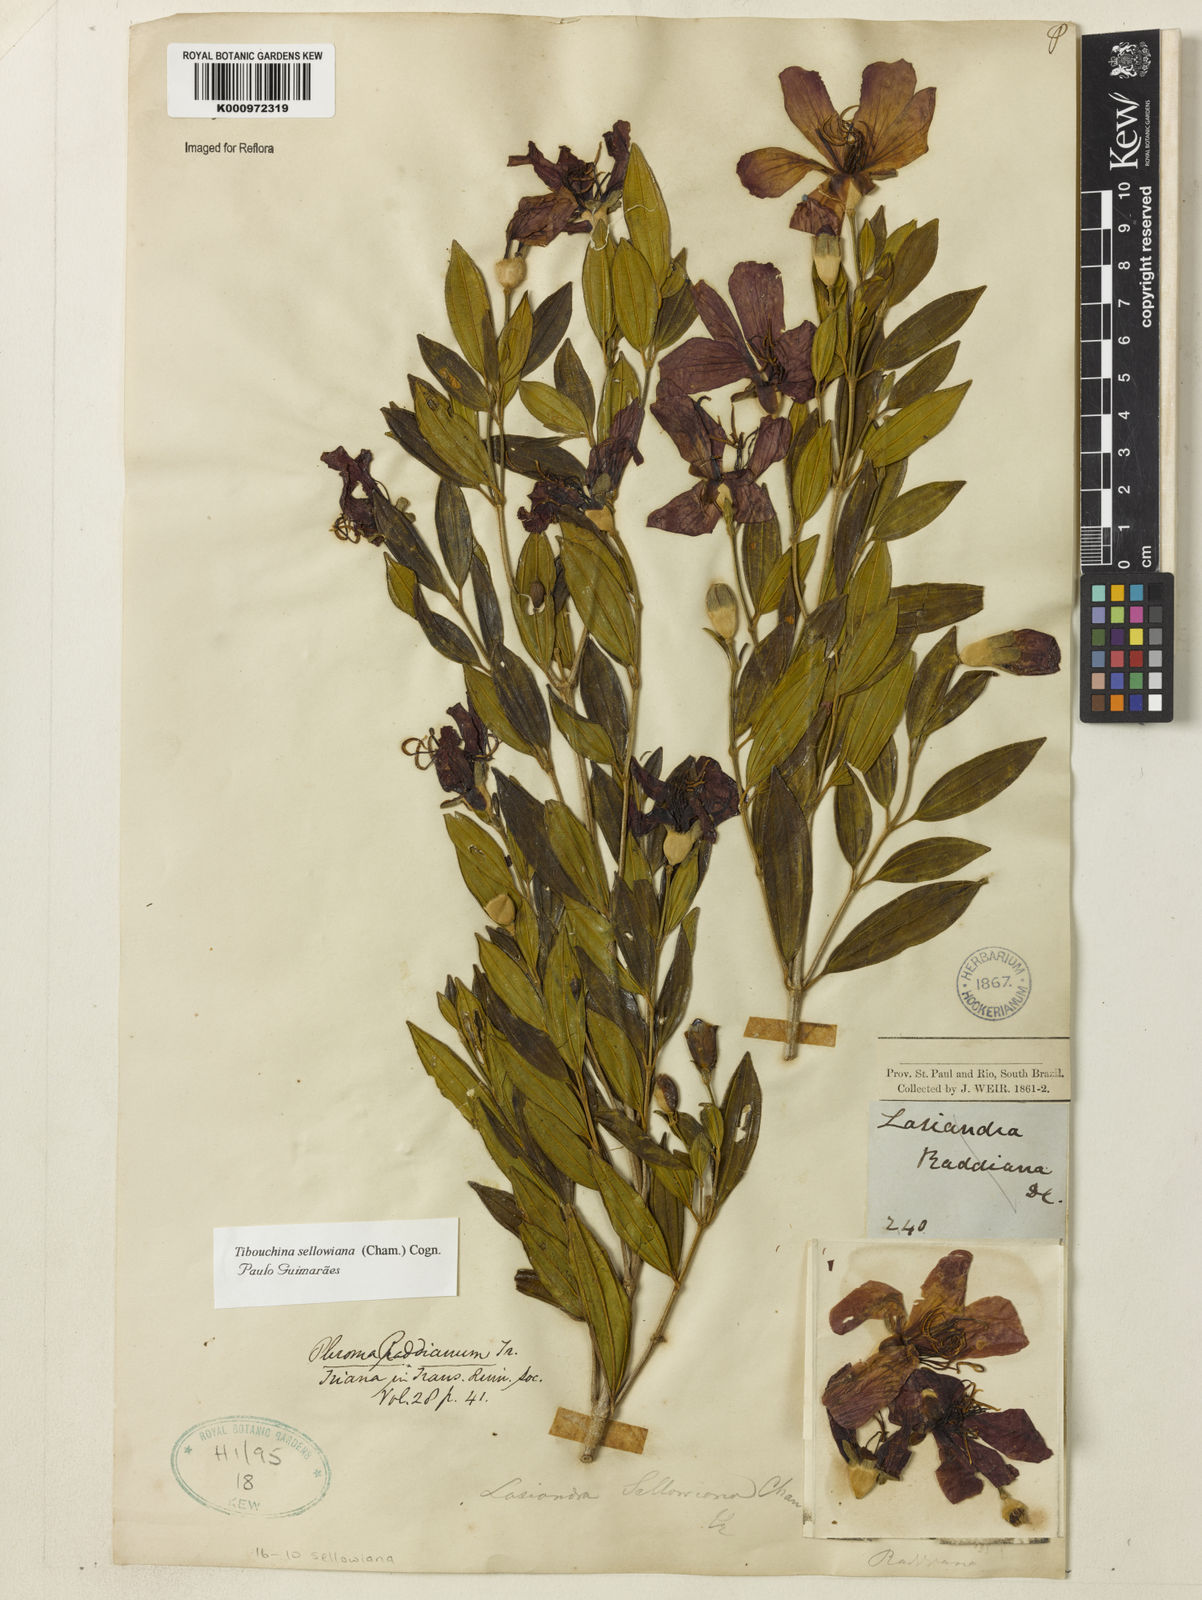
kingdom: Plantae
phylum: Tracheophyta
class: Magnoliopsida
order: Myrtales
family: Melastomataceae
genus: Pleroma
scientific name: Pleroma sellowianum
